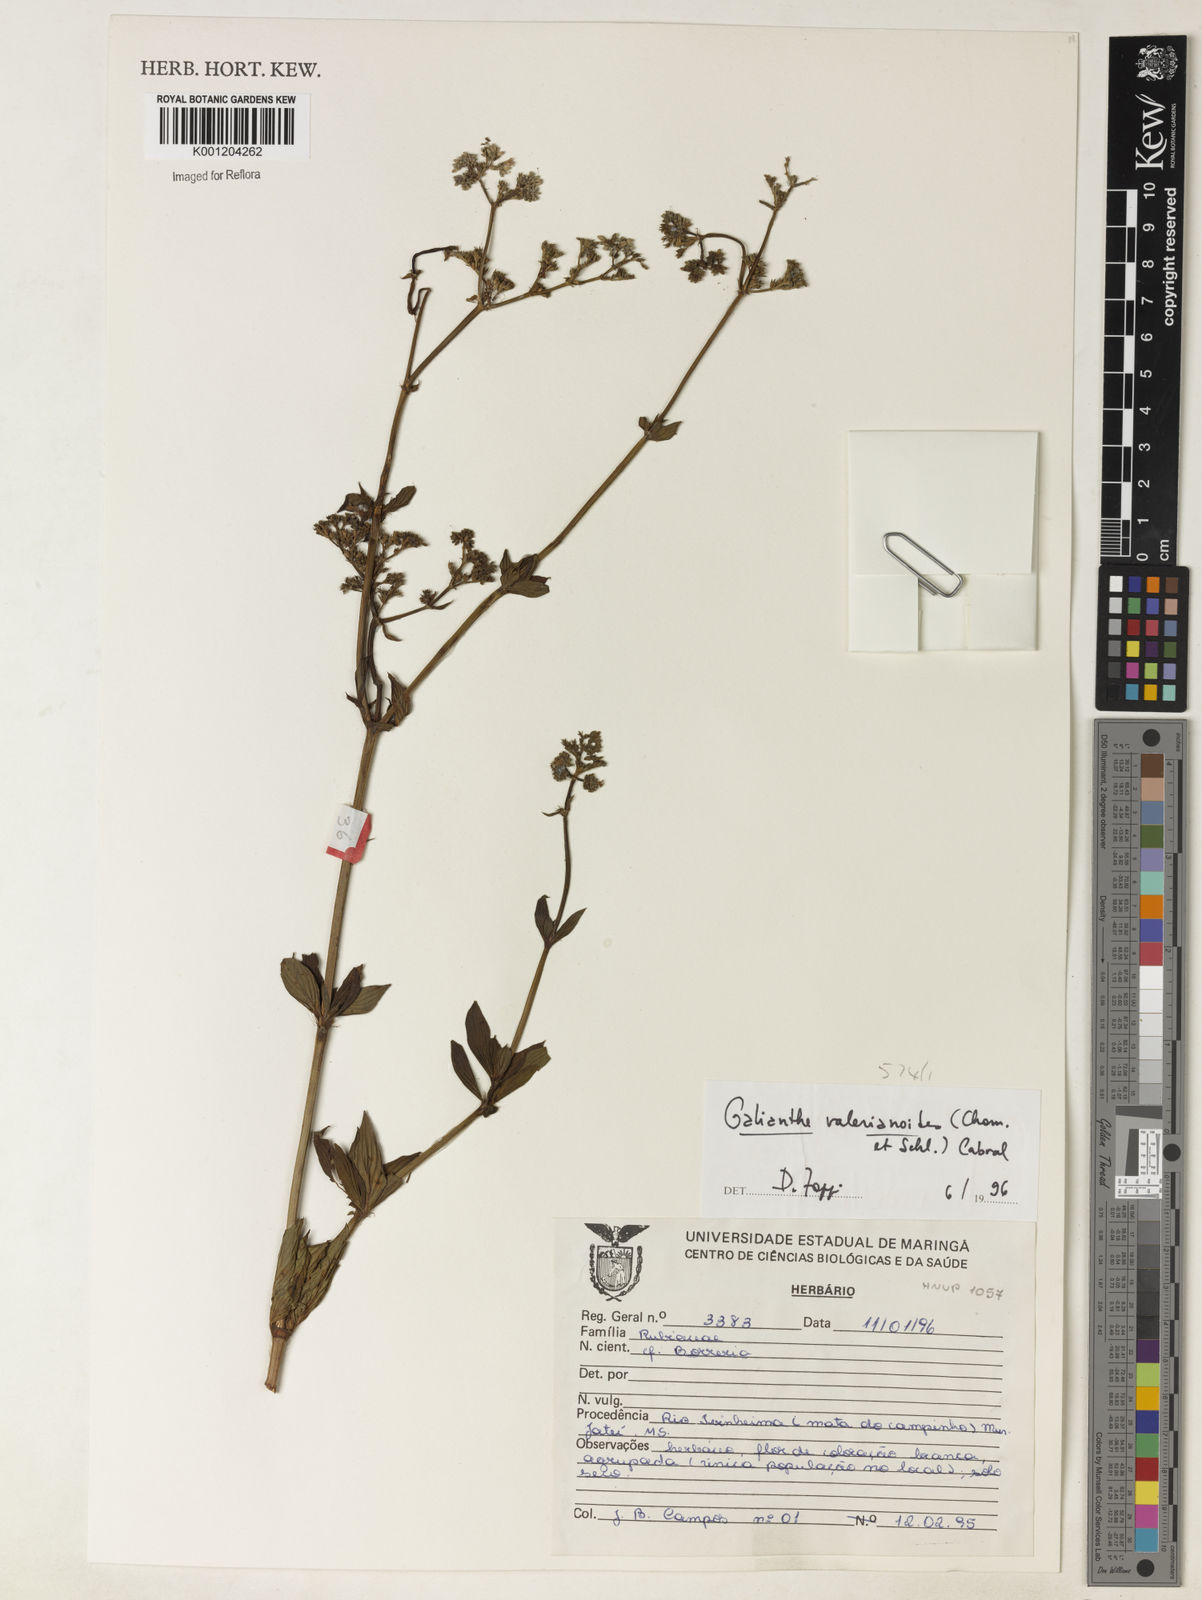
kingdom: Plantae
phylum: Tracheophyta
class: Magnoliopsida
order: Gentianales
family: Rubiaceae
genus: Galianthe
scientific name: Galianthe valerianoides
